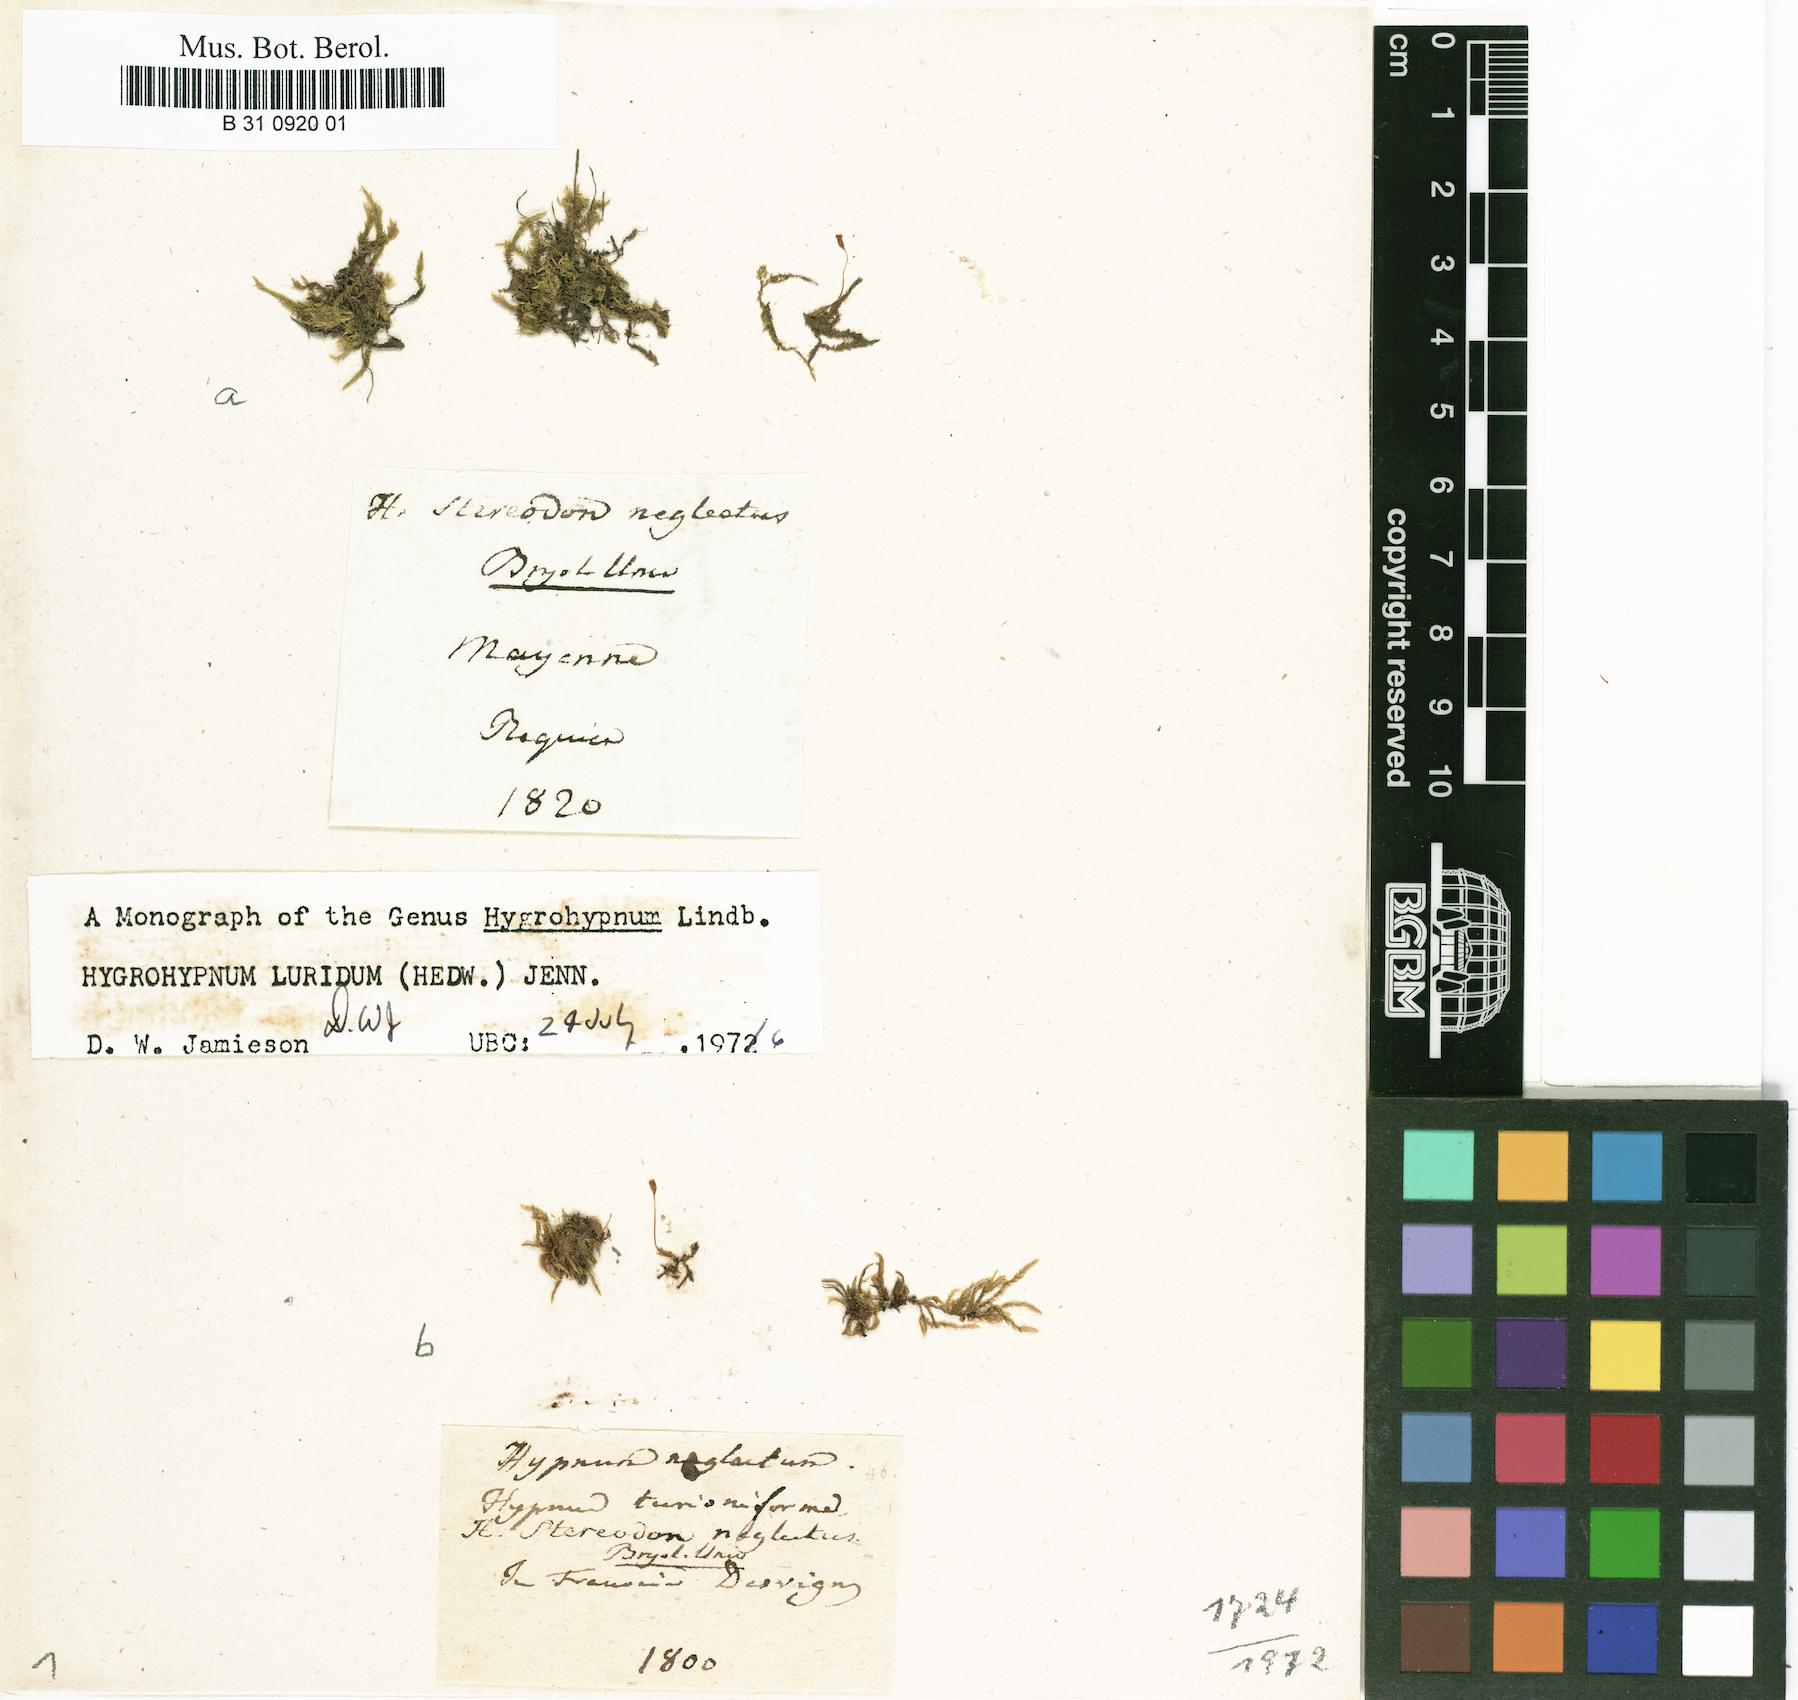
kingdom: Plantae
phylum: Bryophyta
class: Bryopsida
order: Hypnales
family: Amblystegiaceae
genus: Hygrohypnum
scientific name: Hygrohypnum luridum
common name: Drab brook moss
